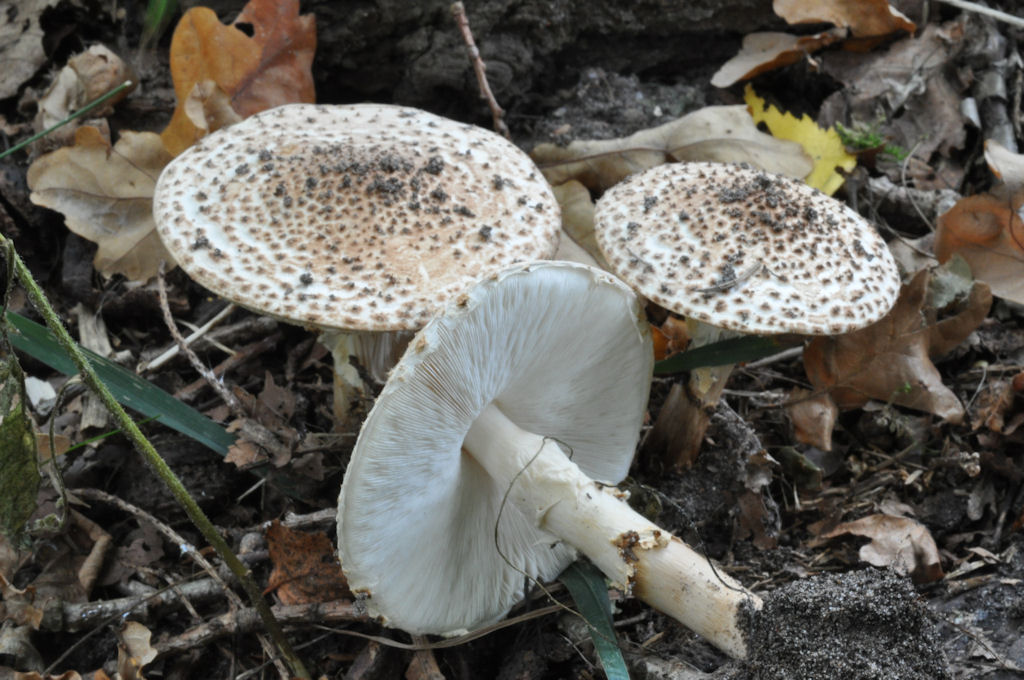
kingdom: Fungi
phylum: Basidiomycota
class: Agaricomycetes
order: Agaricales
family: Agaricaceae
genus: Echinoderma
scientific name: Echinoderma asperum
